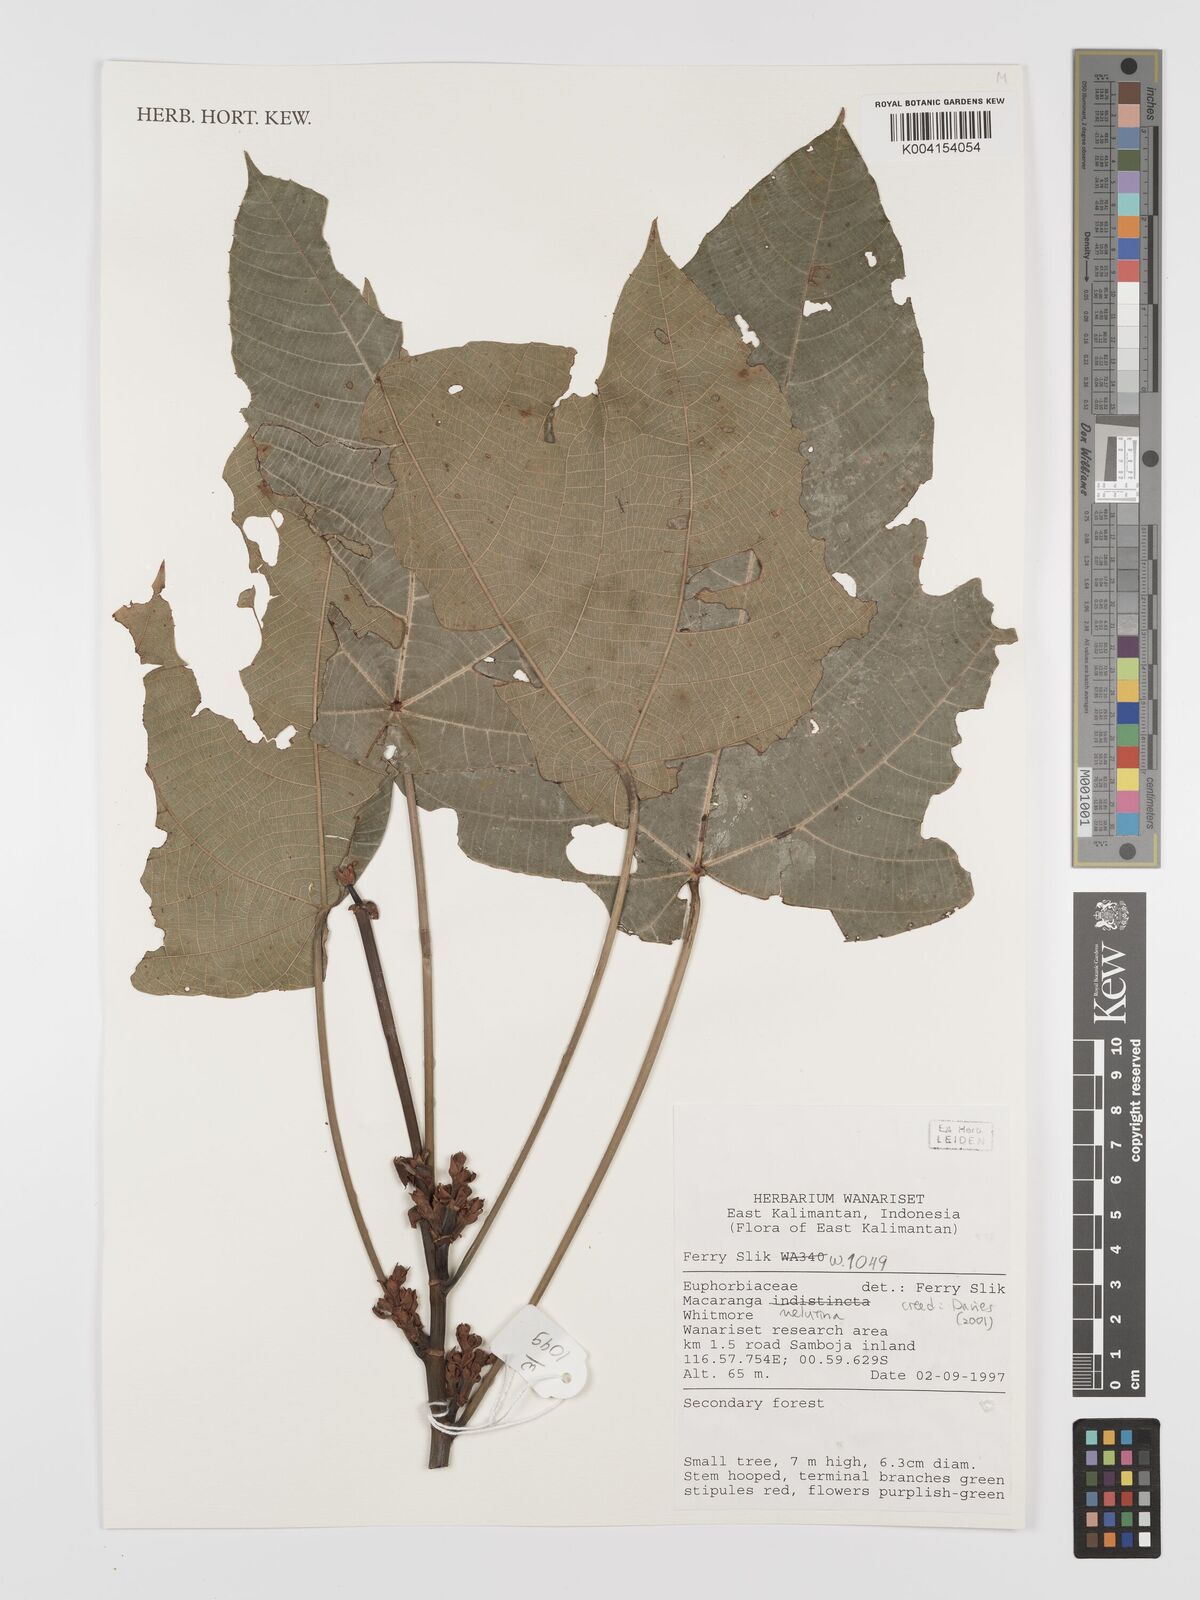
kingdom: Plantae
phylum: Tracheophyta
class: Magnoliopsida
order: Malpighiales
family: Euphorbiaceae
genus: Macaranga
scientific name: Macaranga indistincta
